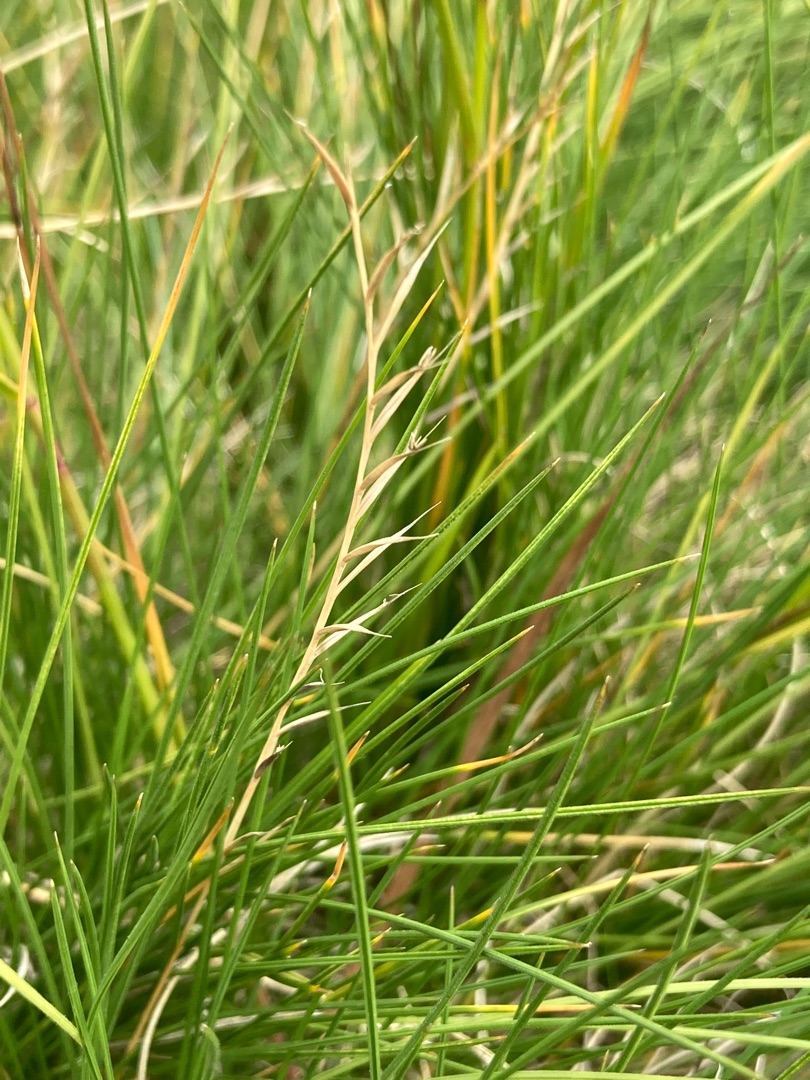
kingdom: Plantae
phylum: Tracheophyta
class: Liliopsida
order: Poales
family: Poaceae
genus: Nardus
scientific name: Nardus stricta
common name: Katteskæg
